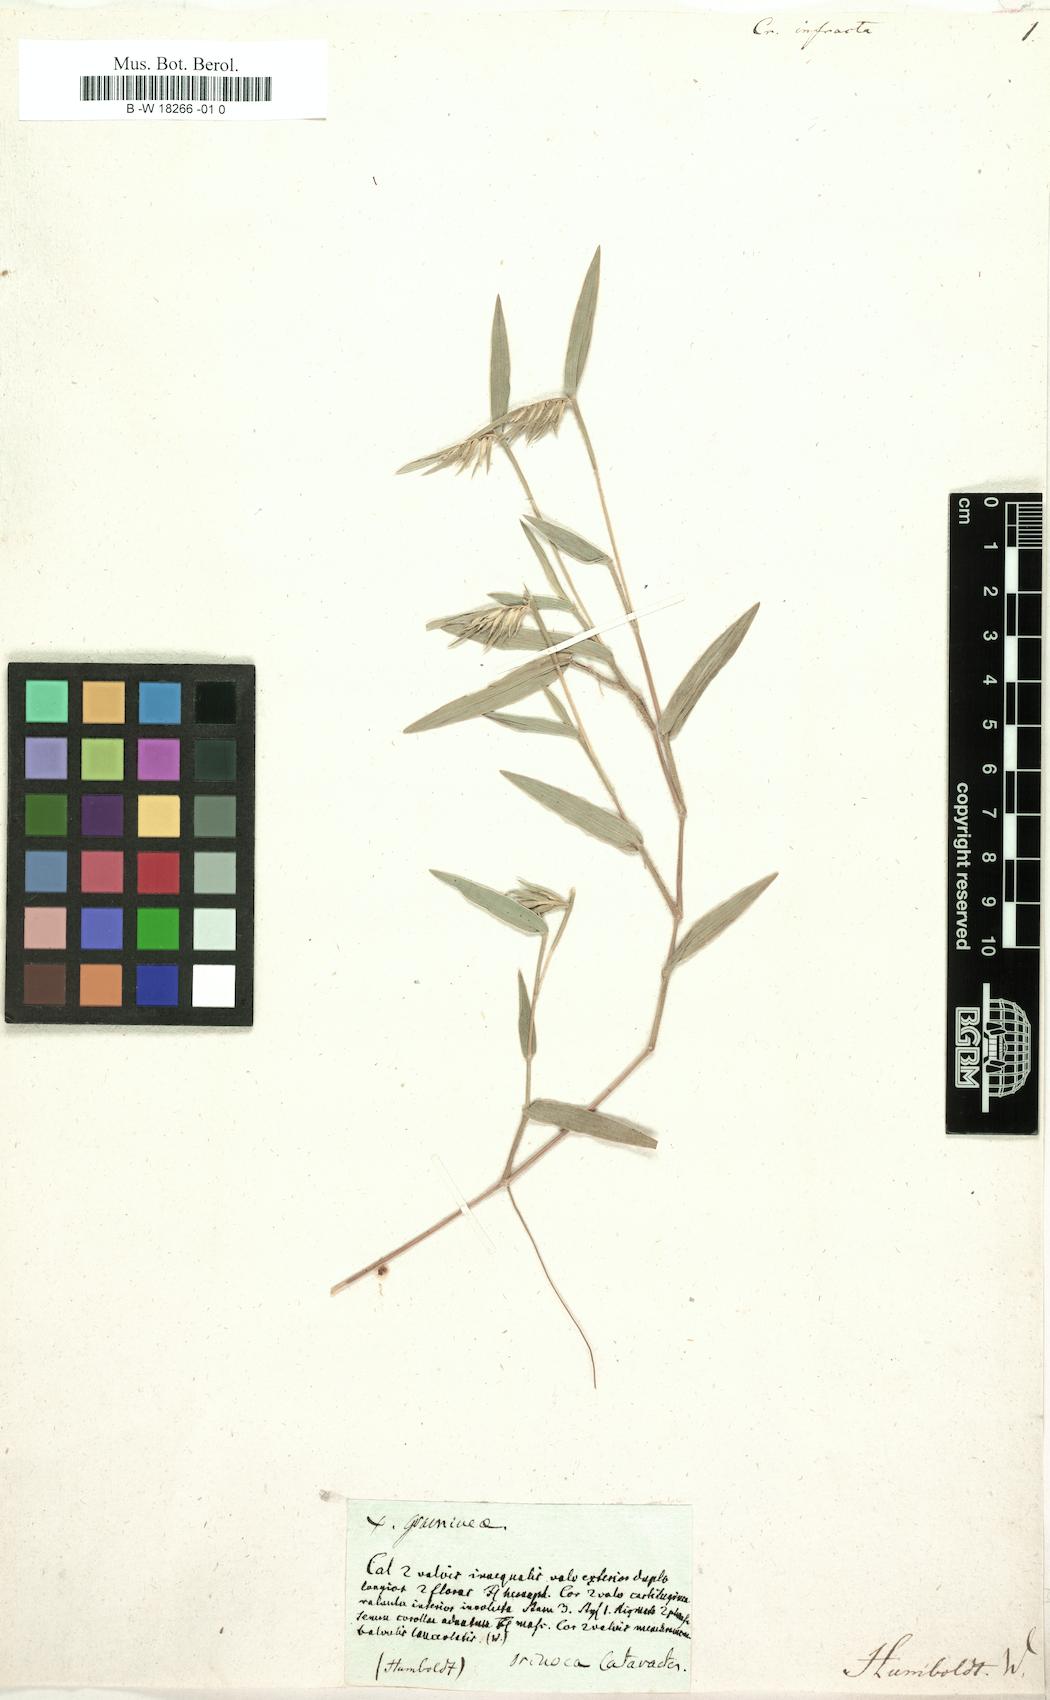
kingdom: Plantae
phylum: Tracheophyta
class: Liliopsida
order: Poales
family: Poaceae
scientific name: Poaceae
